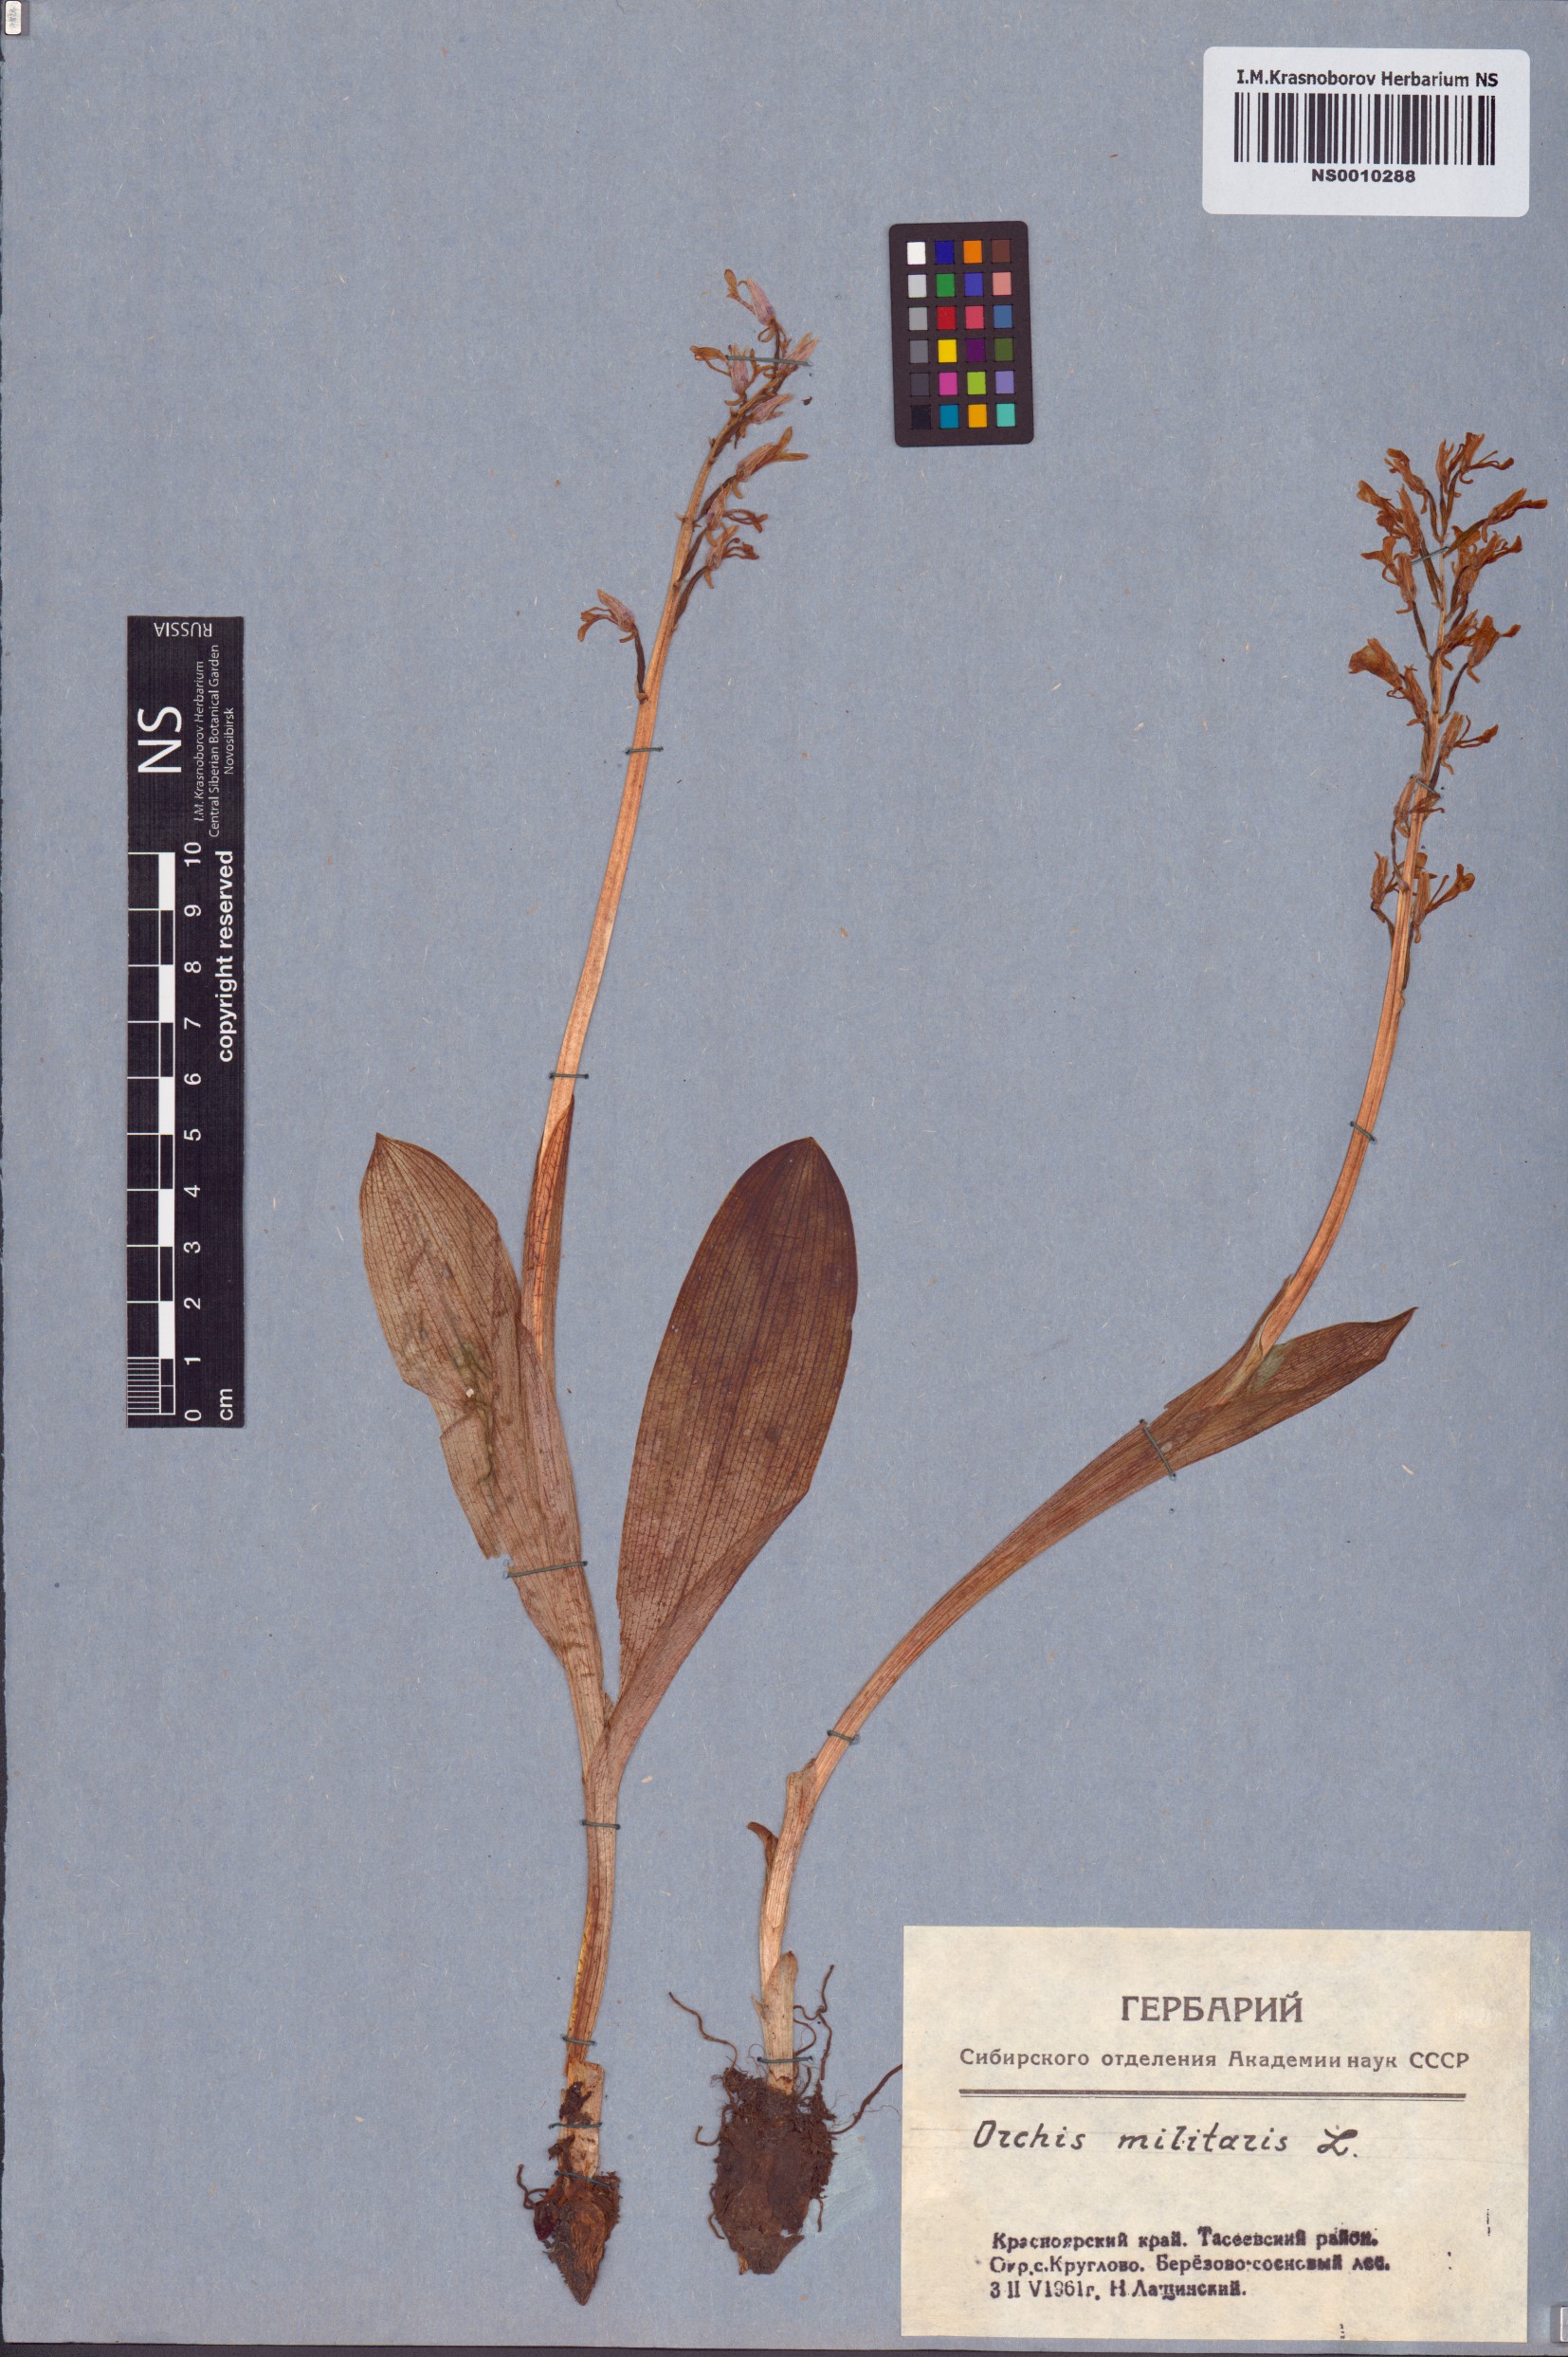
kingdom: Plantae
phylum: Tracheophyta
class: Liliopsida
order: Asparagales
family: Orchidaceae
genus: Orchis
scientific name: Orchis militaris
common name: Military orchid
